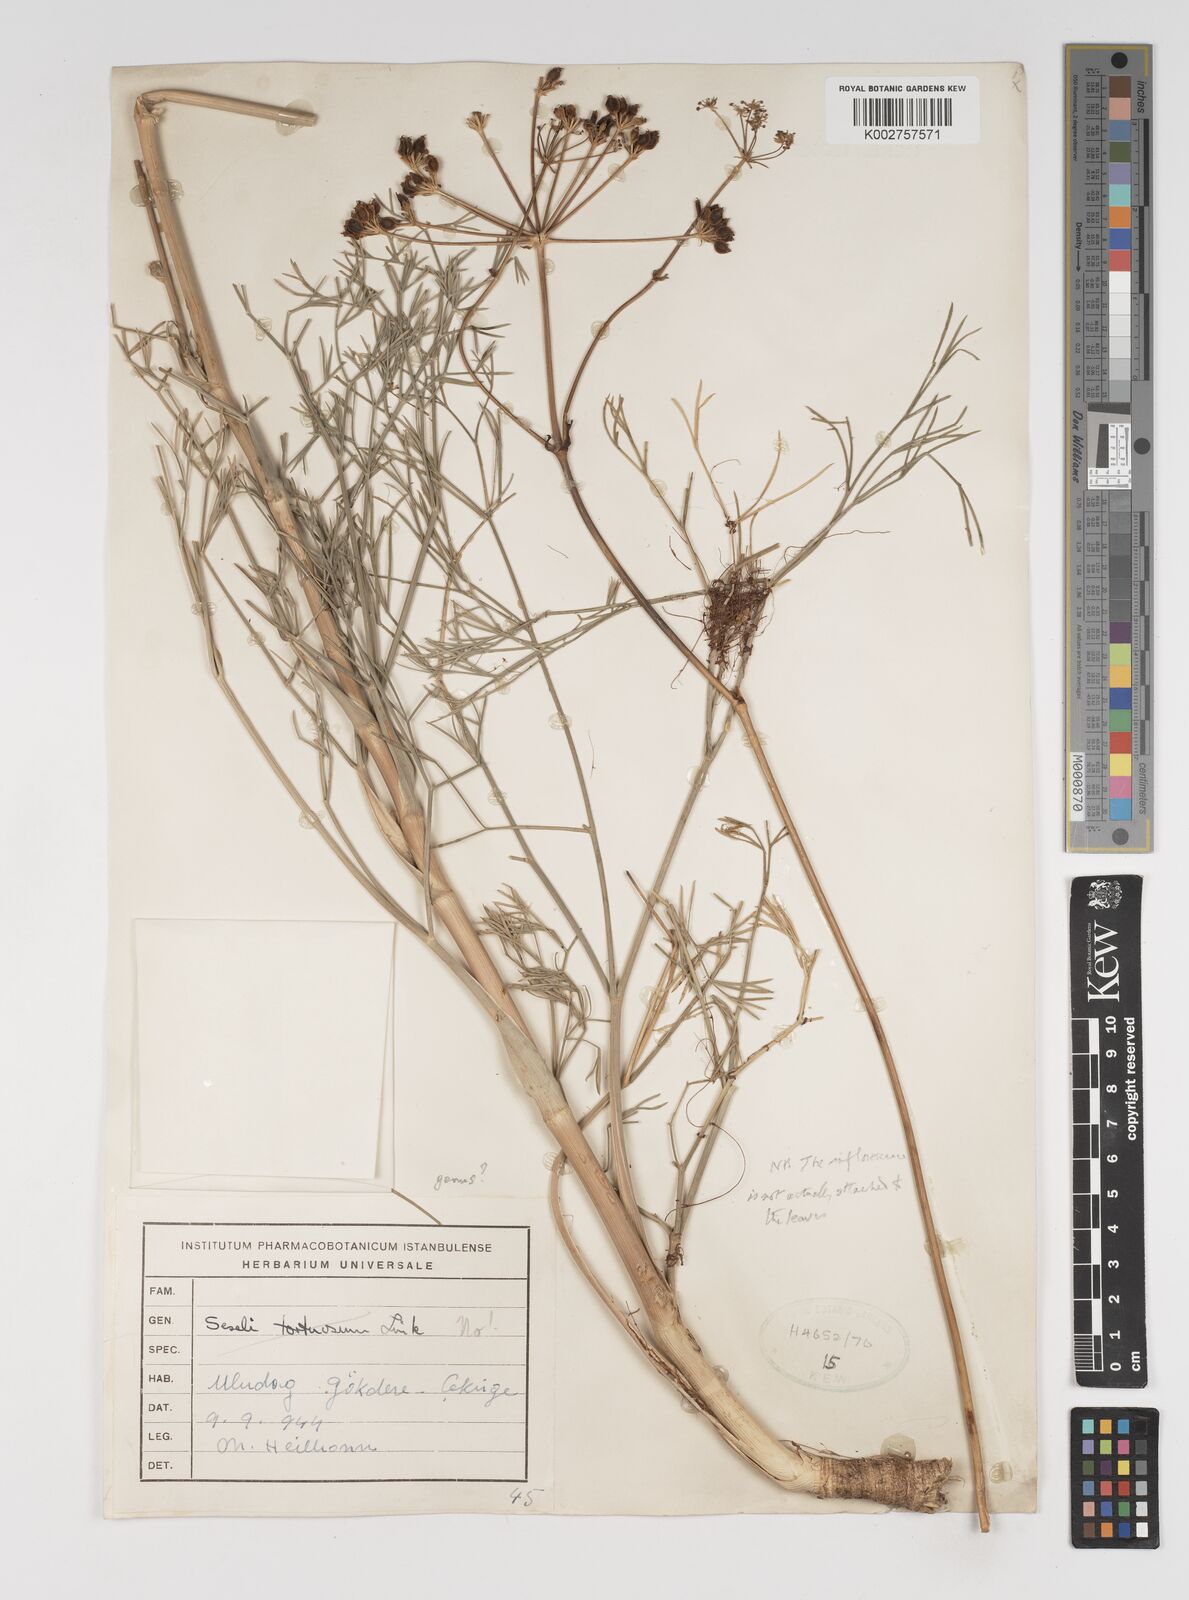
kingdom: Plantae
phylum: Tracheophyta
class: Magnoliopsida
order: Apiales
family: Apiaceae
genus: Seseli
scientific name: Seseli
